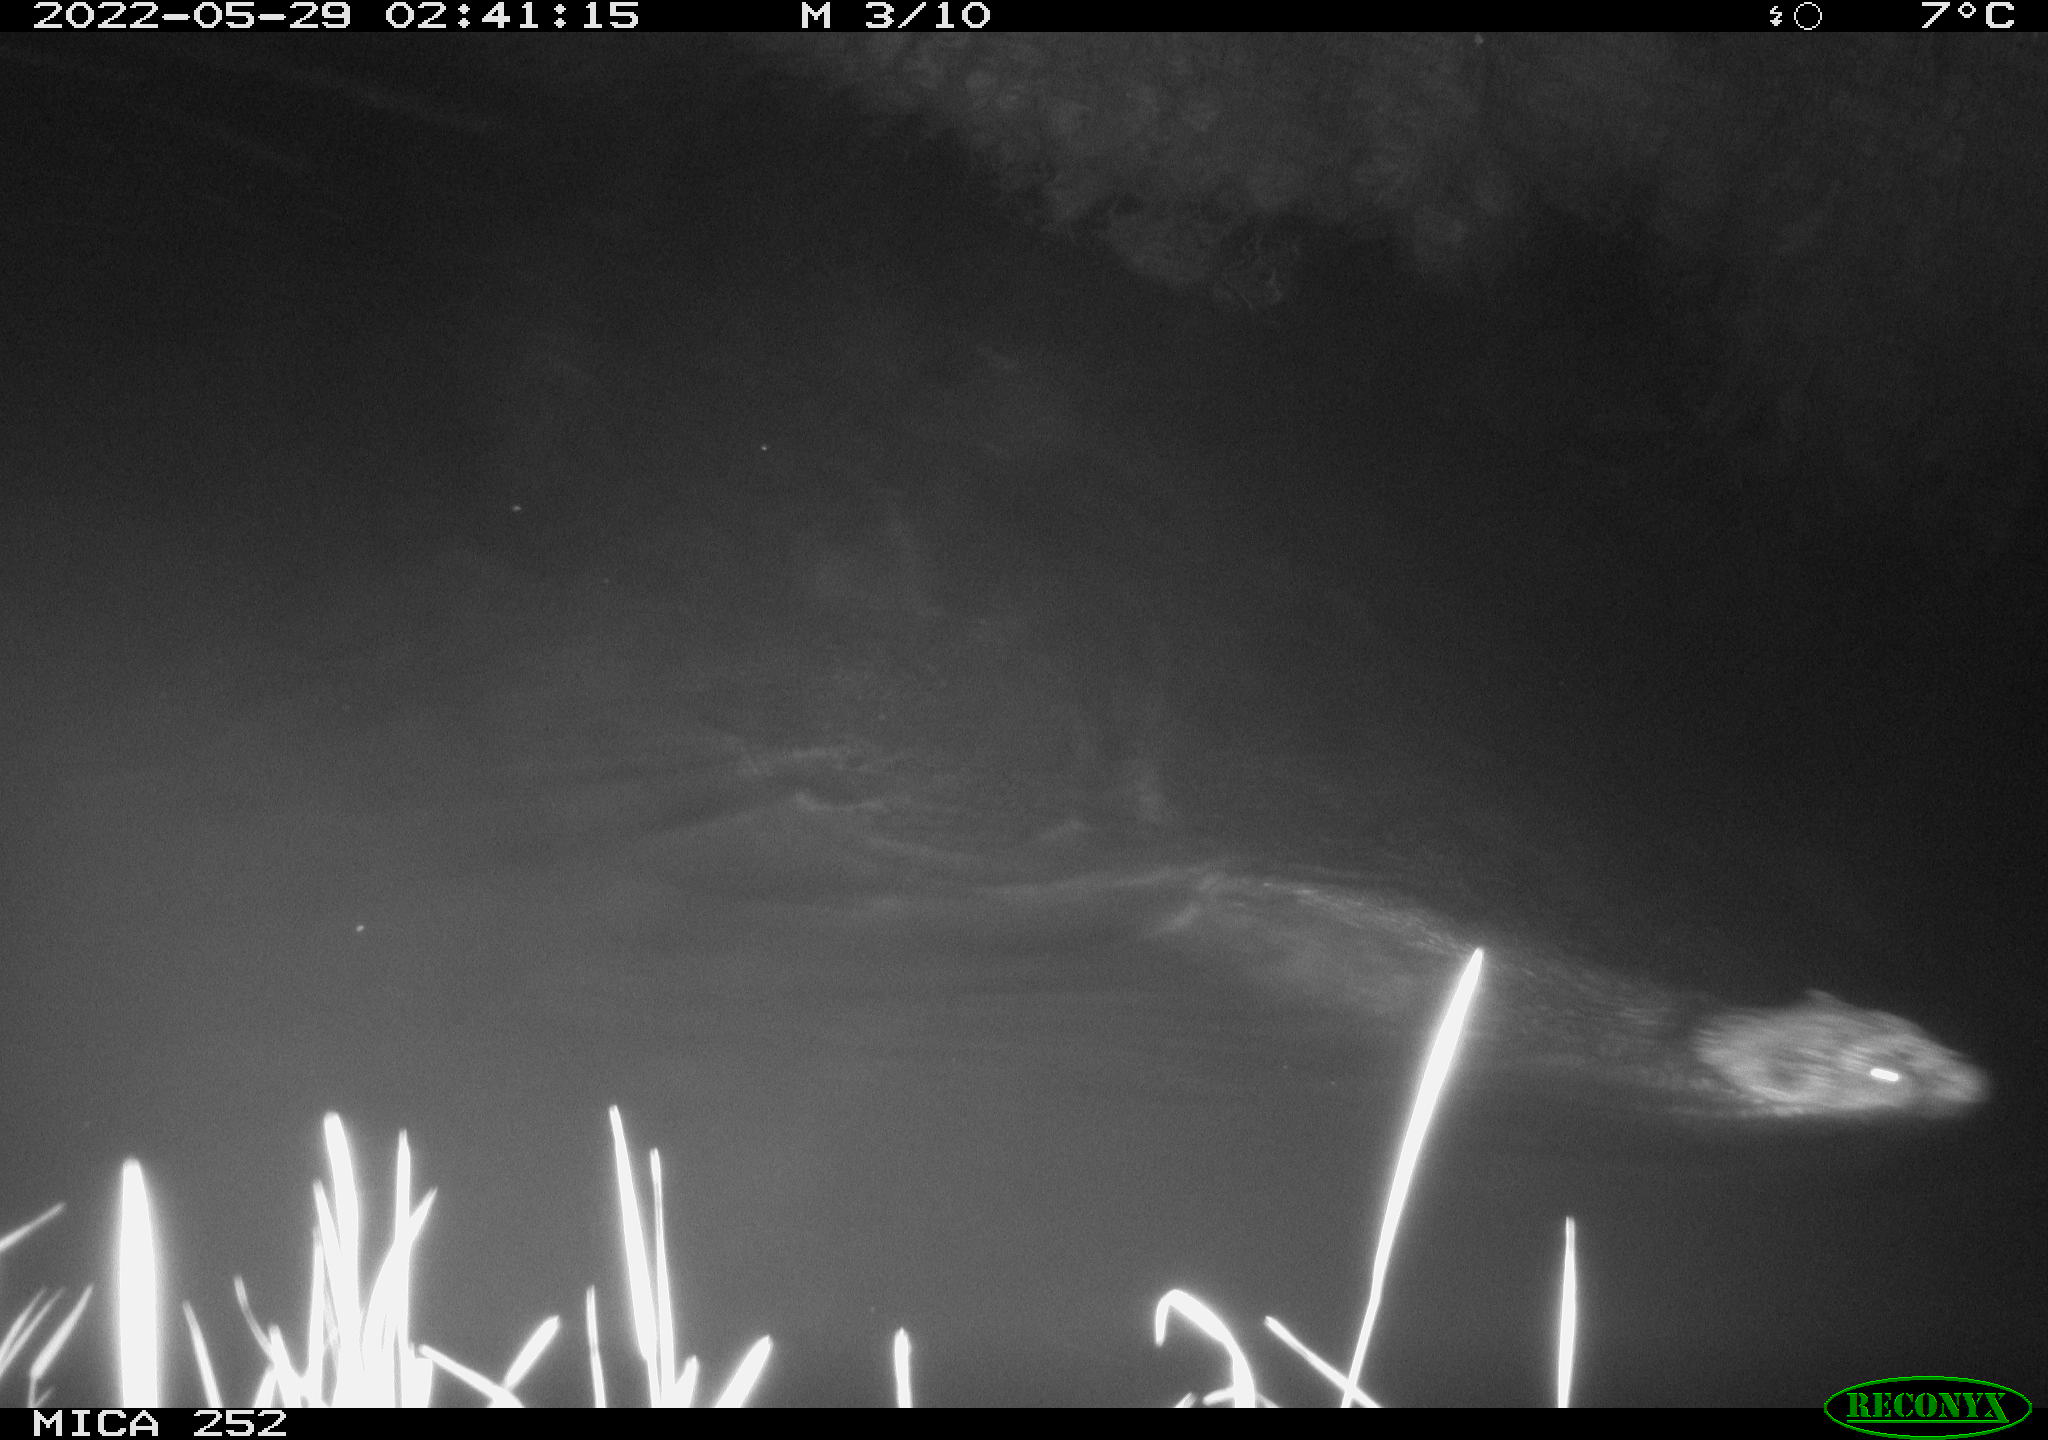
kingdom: Animalia
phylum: Chordata
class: Mammalia
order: Rodentia
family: Castoridae
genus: Castor
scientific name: Castor fiber
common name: Eurasian beaver
